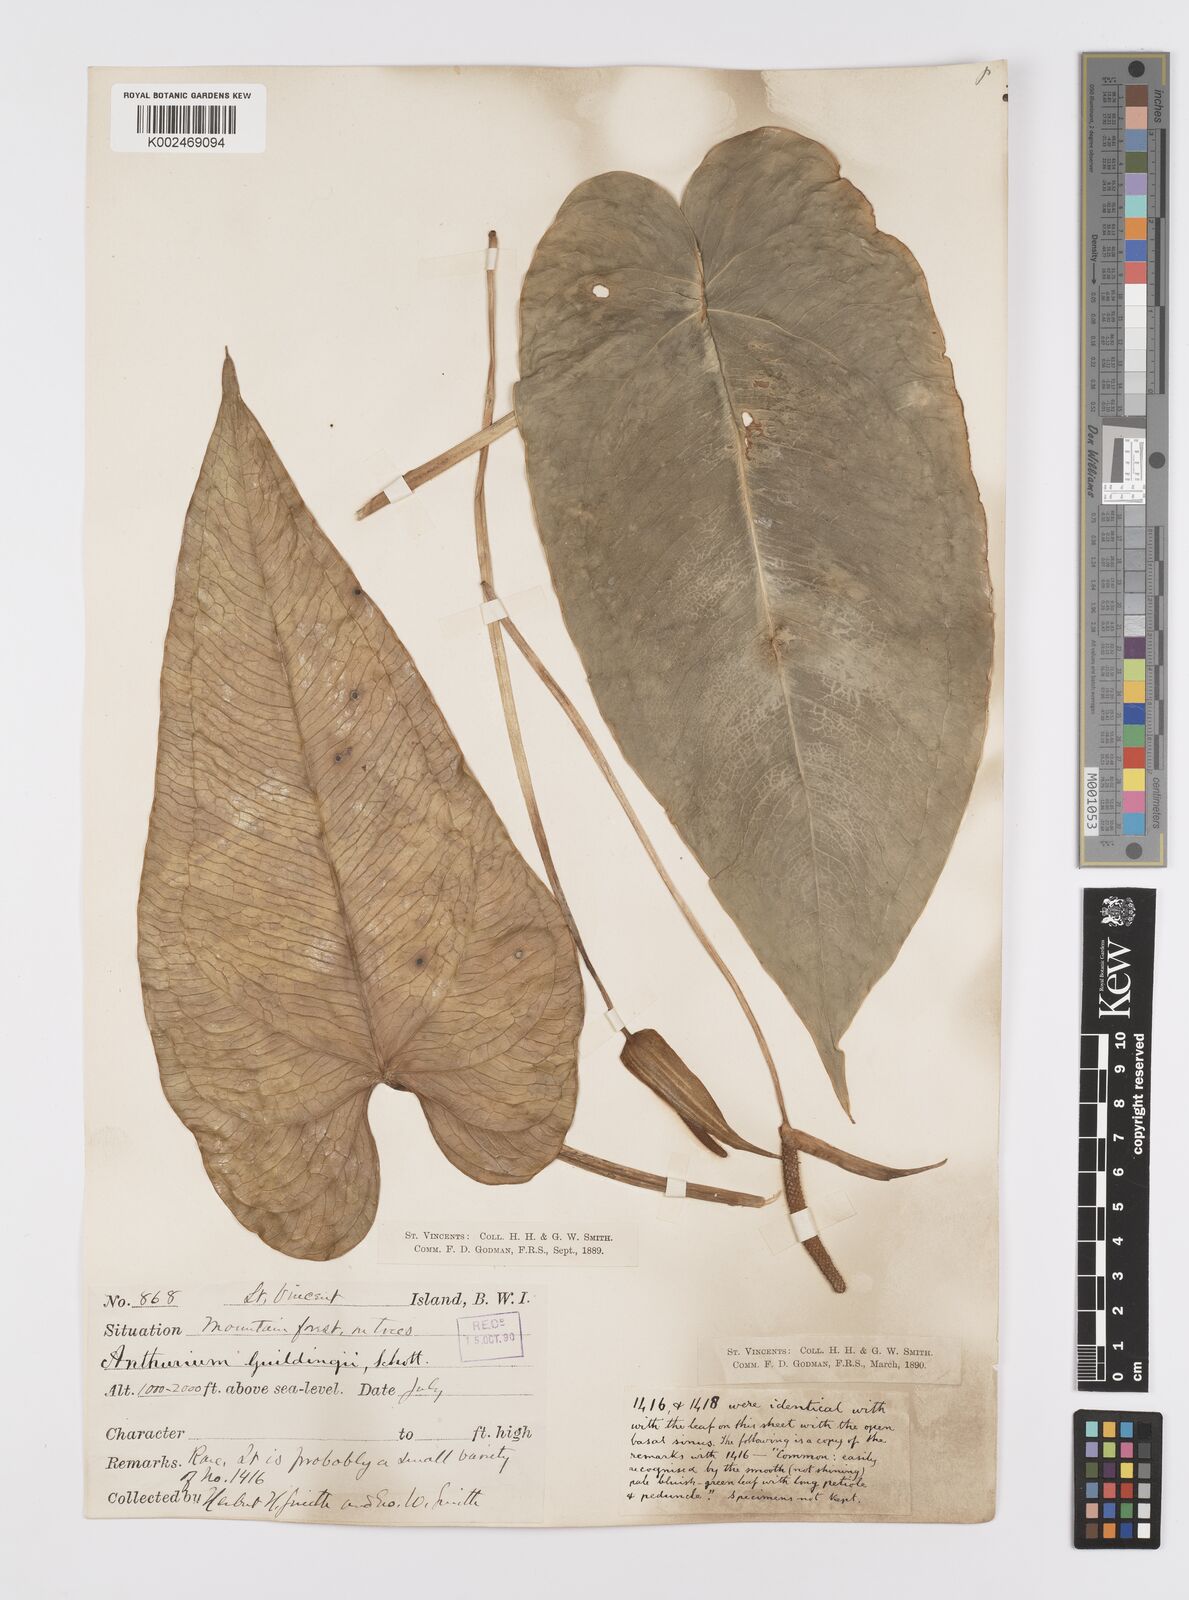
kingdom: Plantae
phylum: Tracheophyta
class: Liliopsida
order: Alismatales
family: Araceae
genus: Anthurium
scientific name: Anthurium
